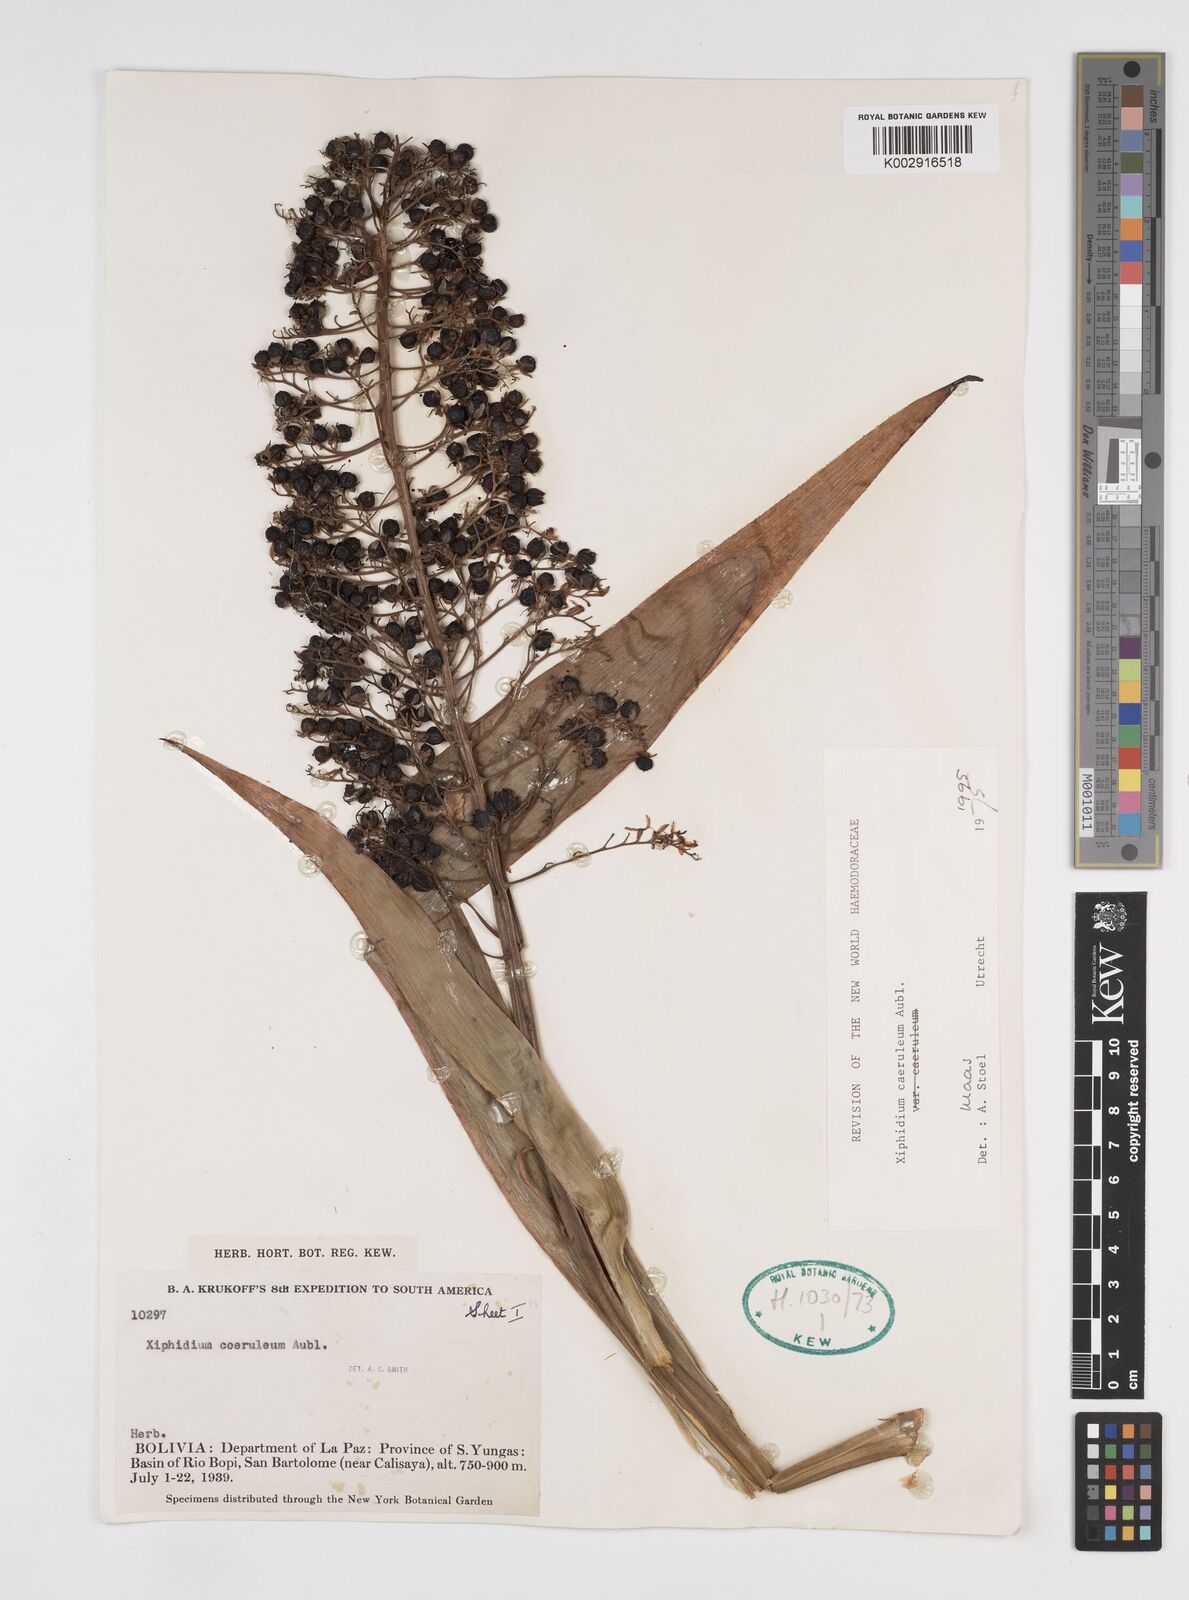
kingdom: Plantae
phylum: Tracheophyta
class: Liliopsida
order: Commelinales
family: Haemodoraceae
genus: Xiphidium
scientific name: Xiphidium caeruleum
